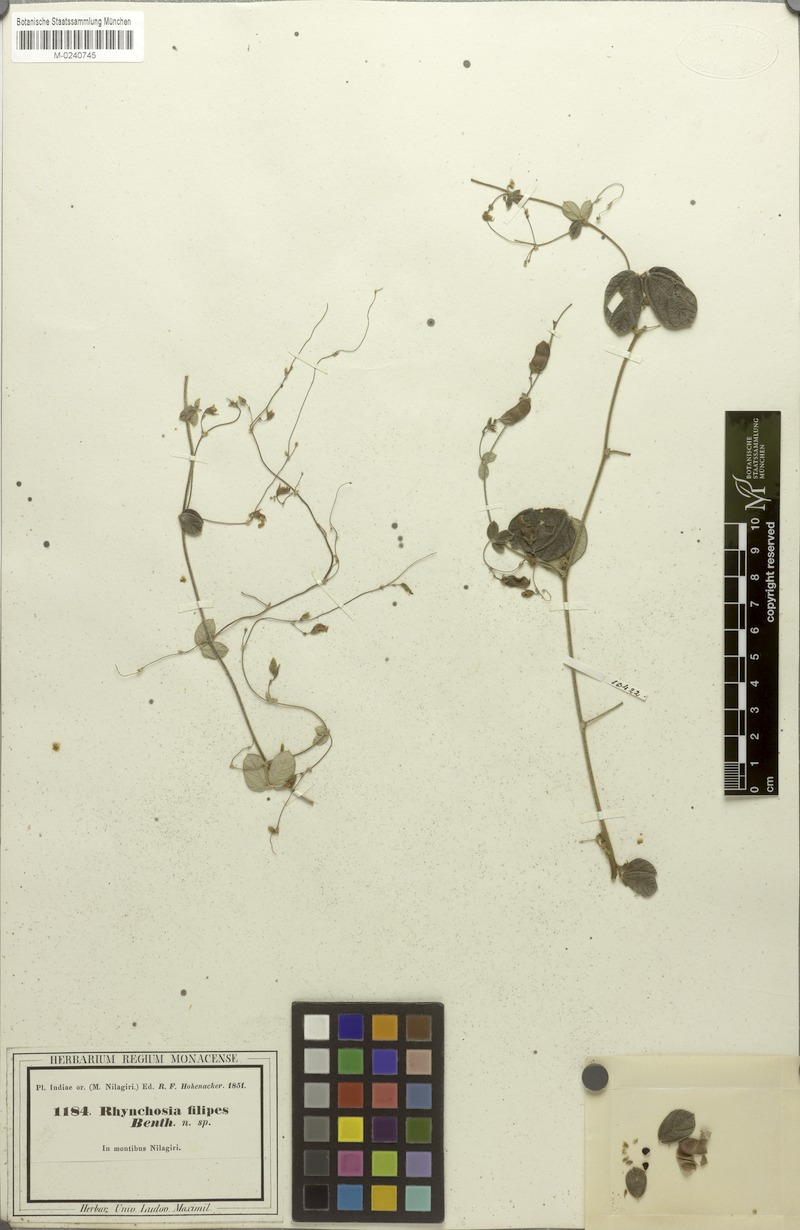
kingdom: Plantae
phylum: Tracheophyta
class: Magnoliopsida
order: Fabales
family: Fabaceae
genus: Rhynchosia
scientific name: Rhynchosia filipes
